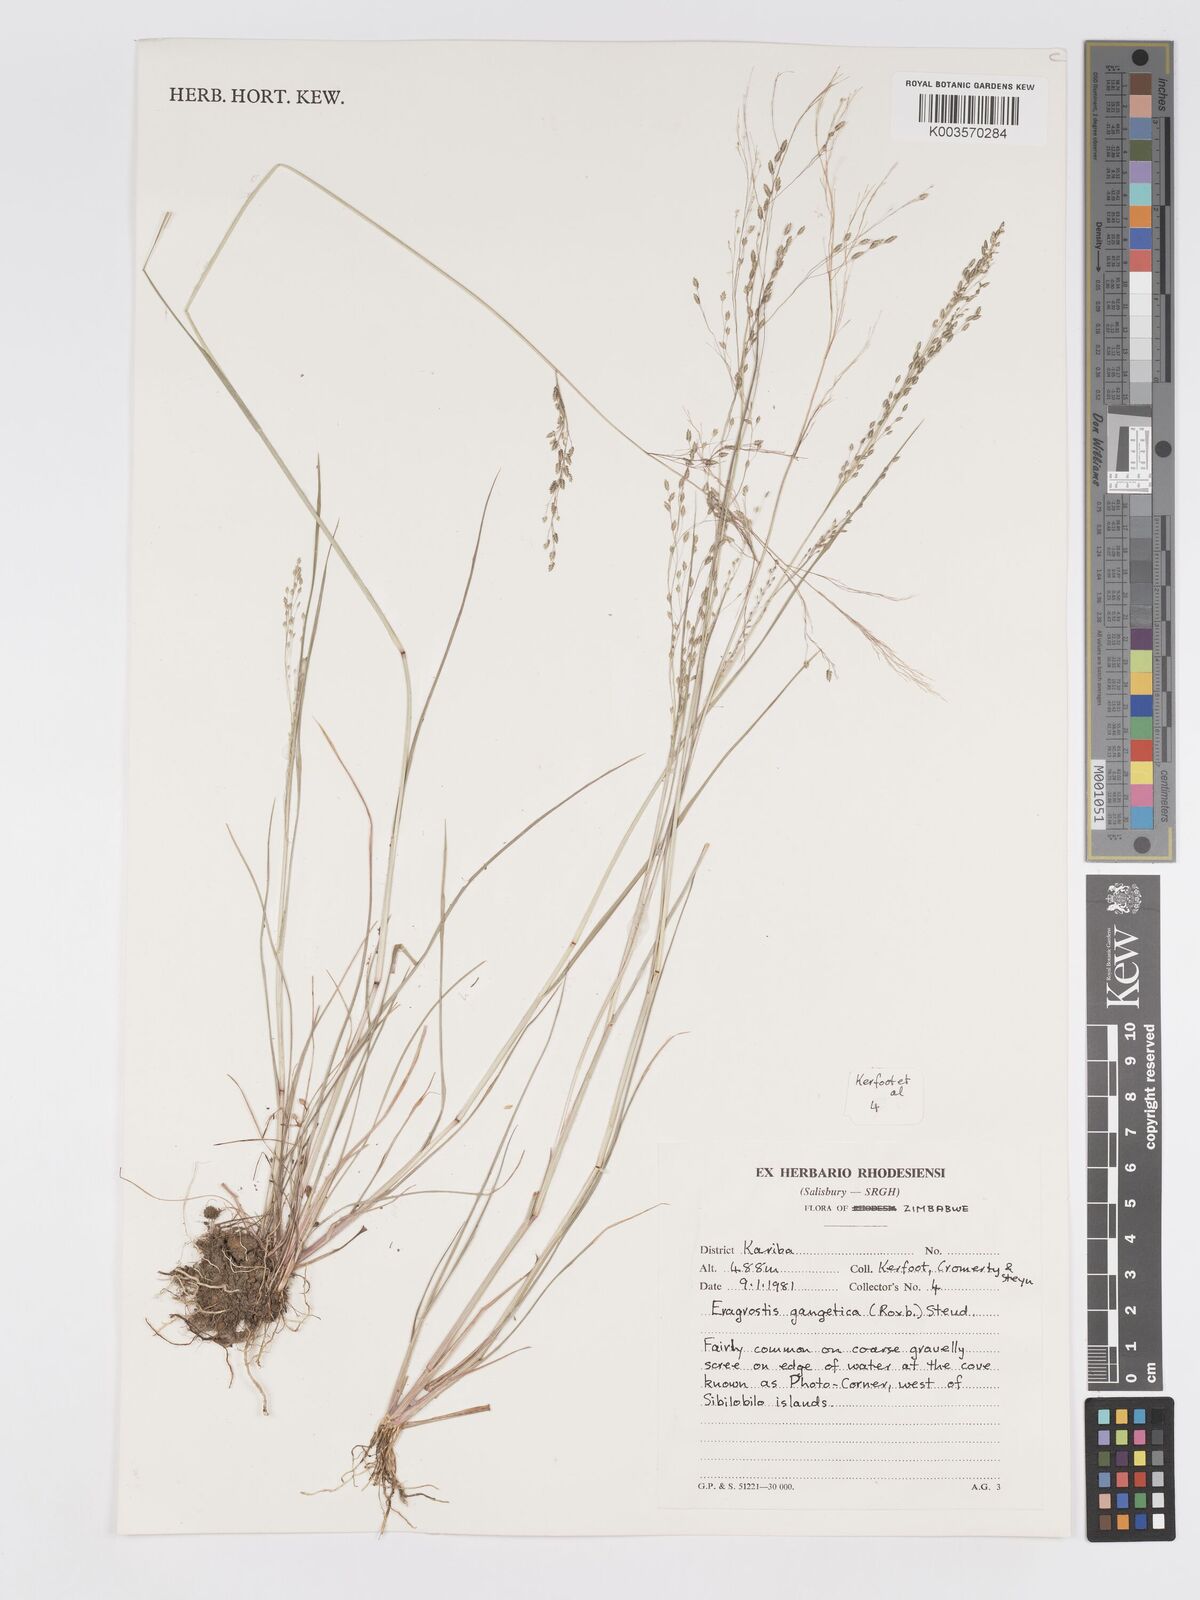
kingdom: Plantae
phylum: Tracheophyta
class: Liliopsida
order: Poales
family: Poaceae
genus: Eragrostis
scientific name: Eragrostis gangetica
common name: Slimflower lovegrass
